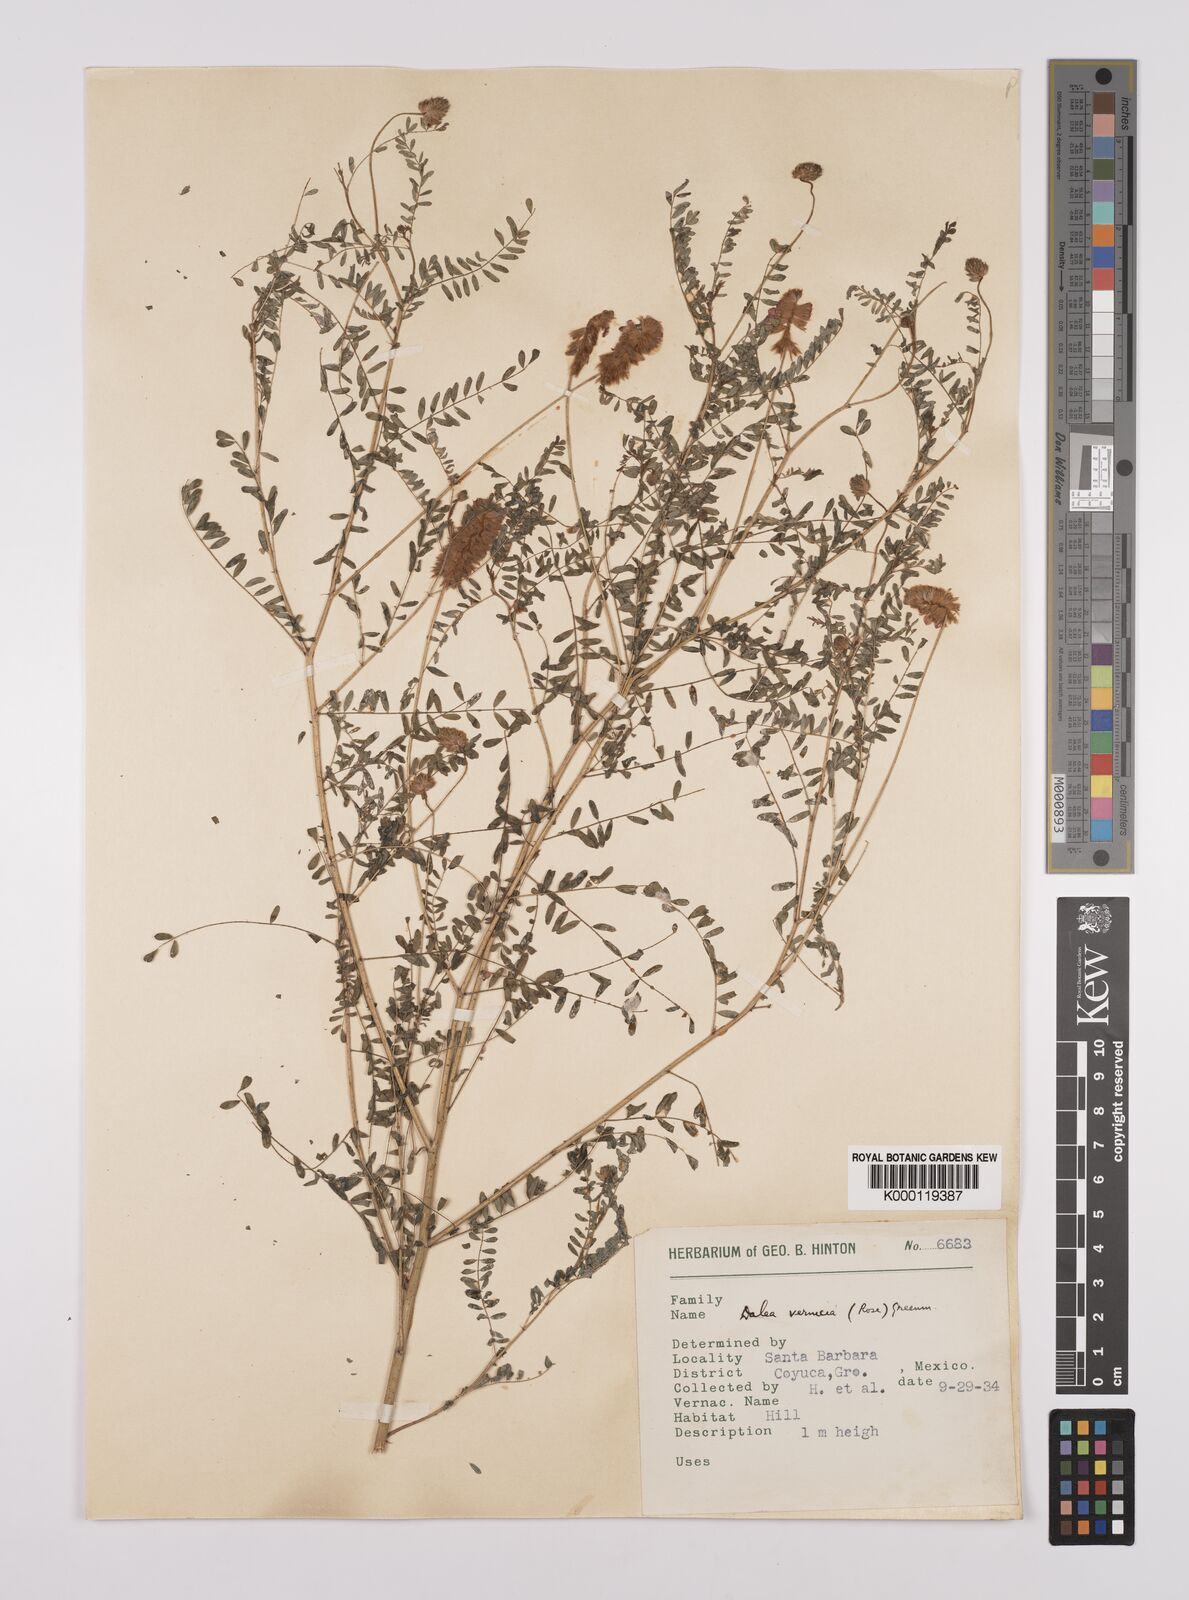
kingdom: Plantae
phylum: Tracheophyta
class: Magnoliopsida
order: Fabales
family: Fabaceae
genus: Dalea
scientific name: Dalea foliolosa
